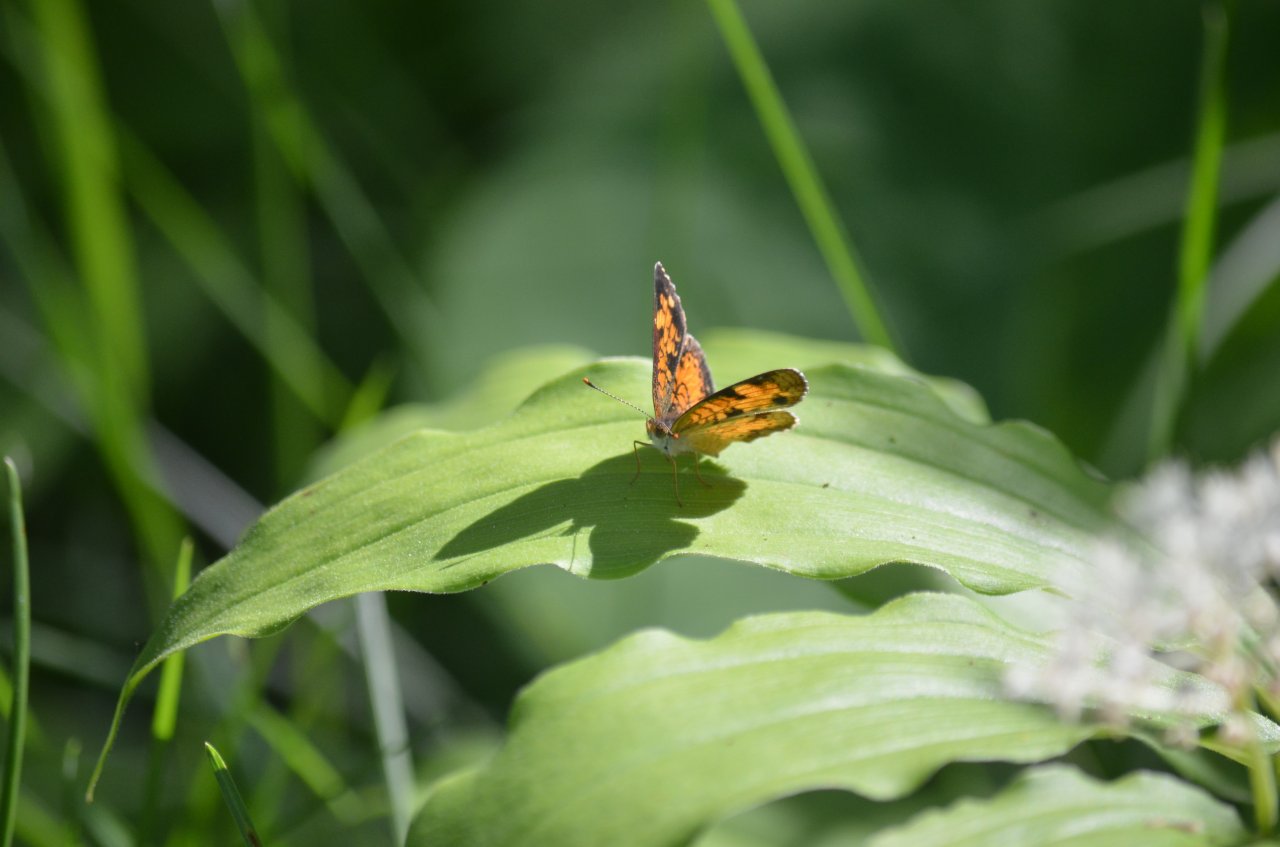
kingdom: Animalia
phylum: Arthropoda
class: Insecta
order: Lepidoptera
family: Nymphalidae
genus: Phyciodes
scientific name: Phyciodes tharos
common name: Northern Crescent
